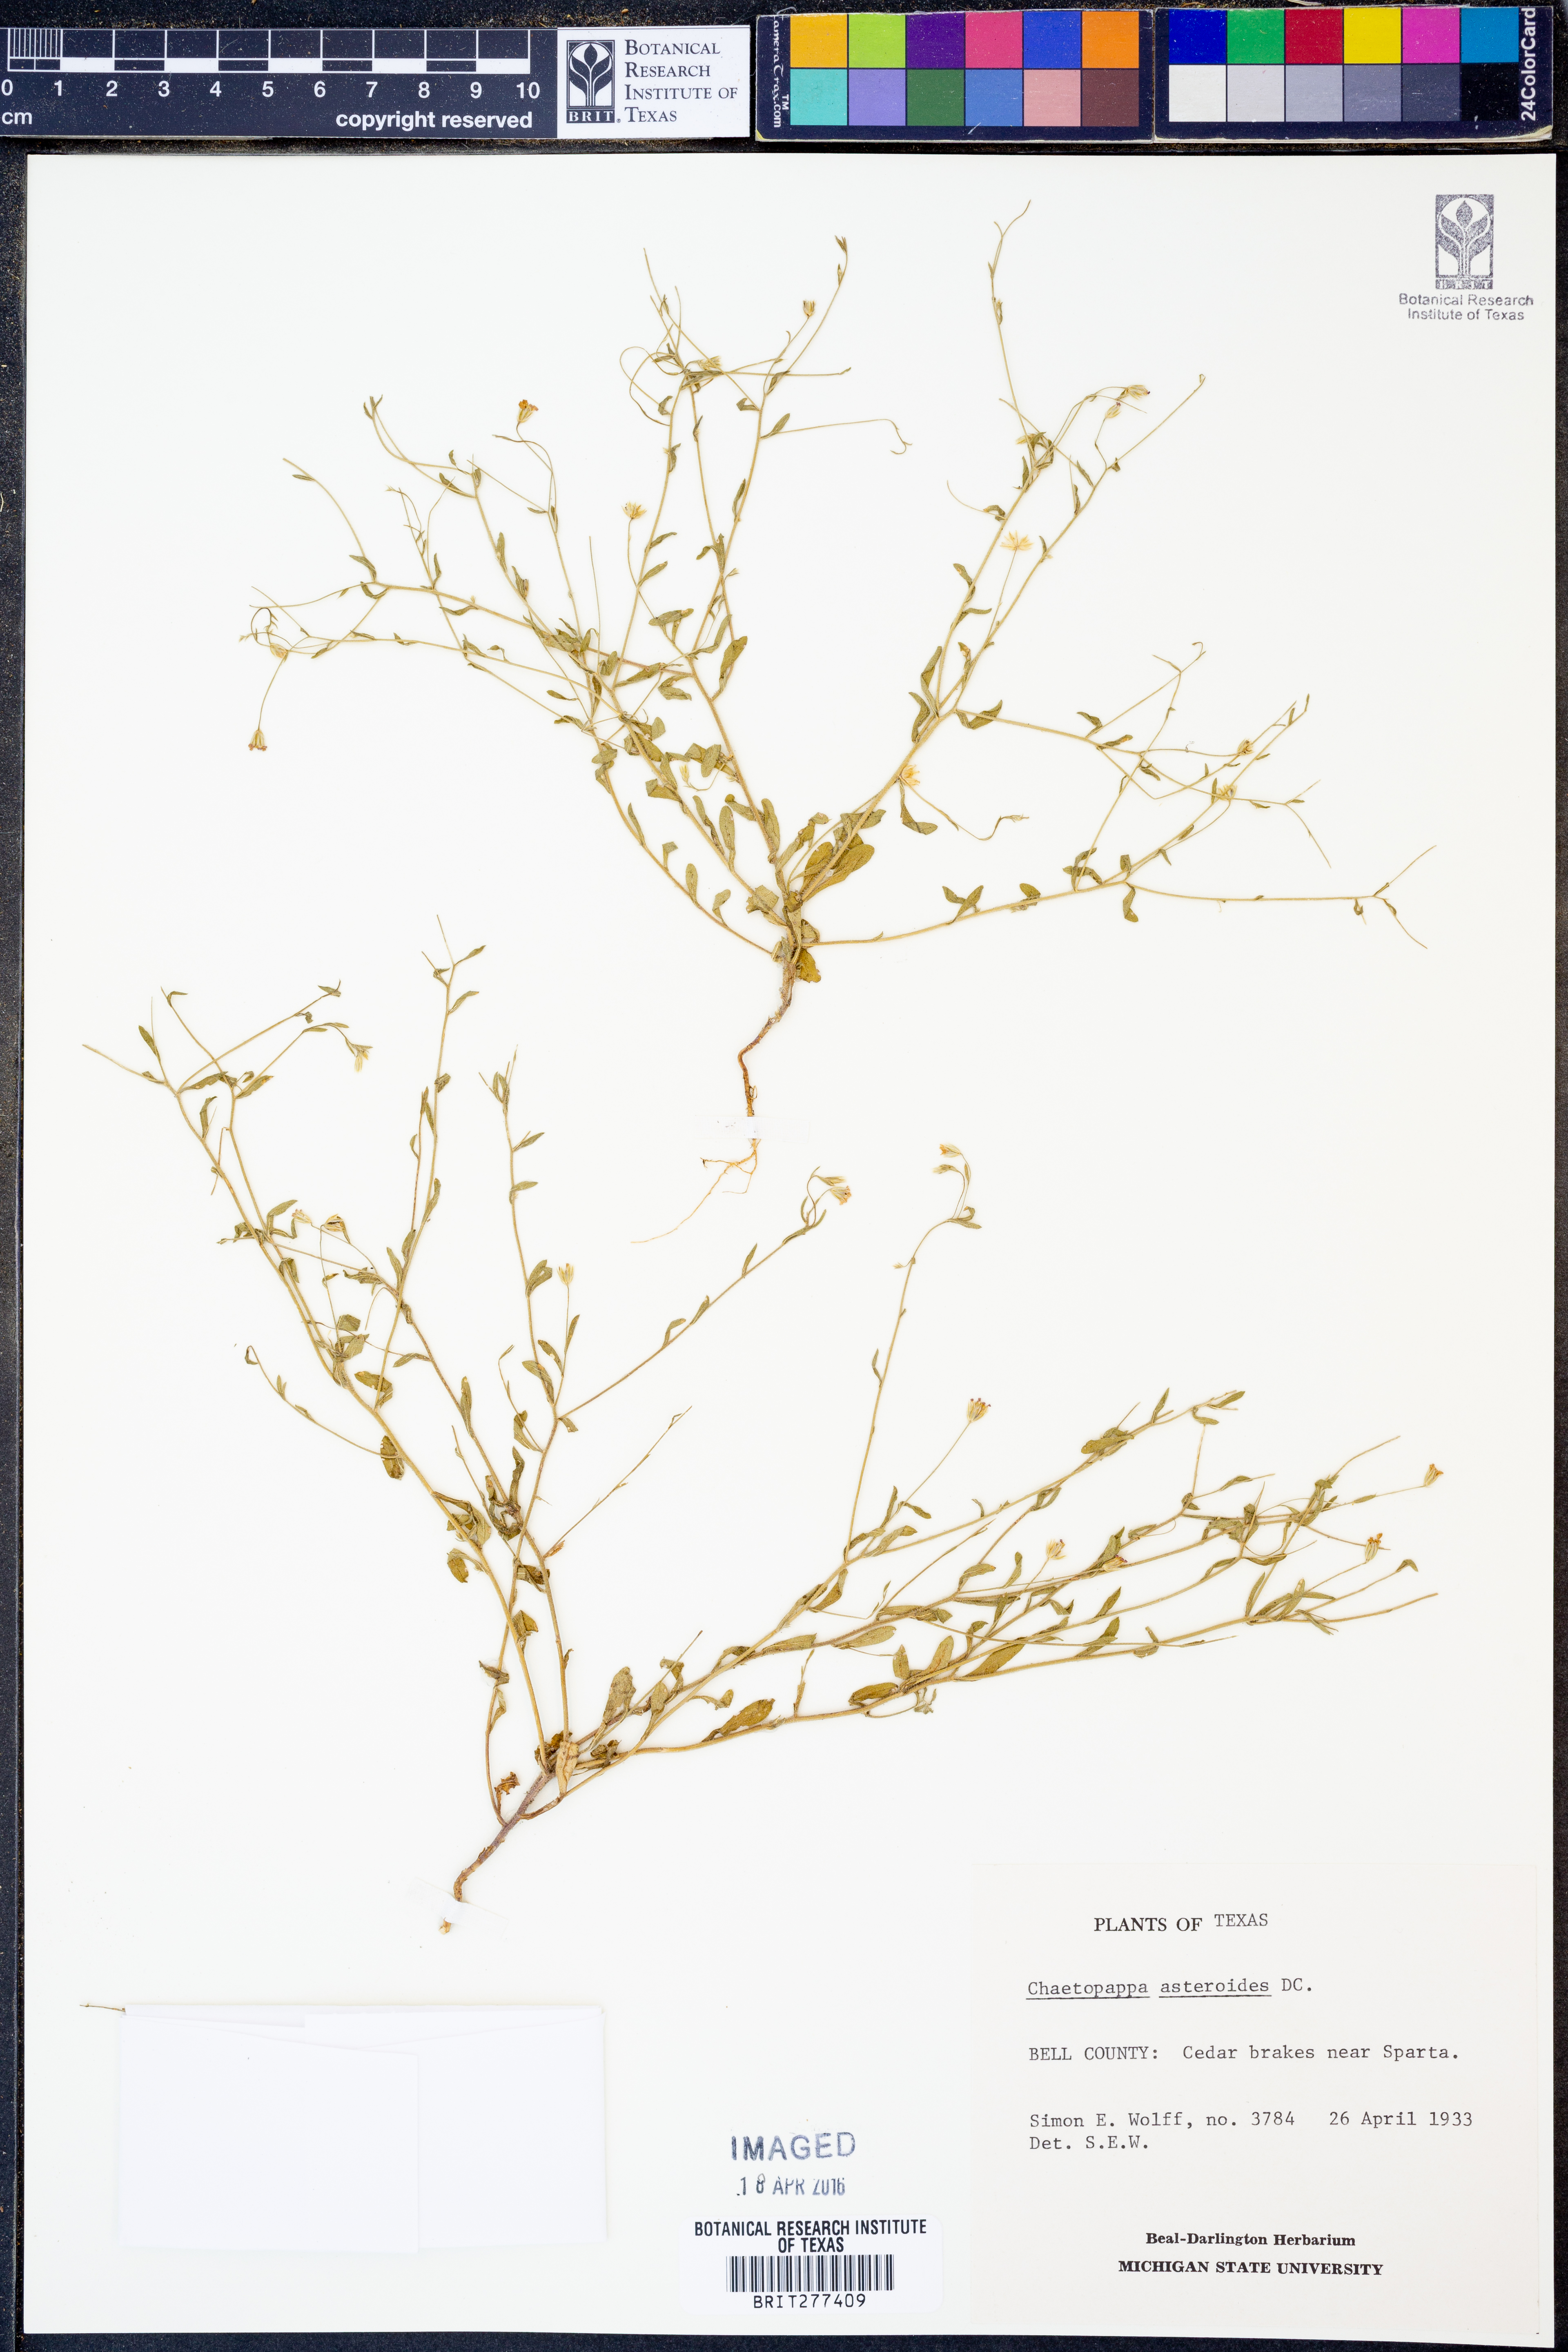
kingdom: Plantae
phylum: Tracheophyta
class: Magnoliopsida
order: Asterales
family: Asteraceae
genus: Chaetopappa
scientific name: Chaetopappa asteroides
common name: Tiny lazy daisy
